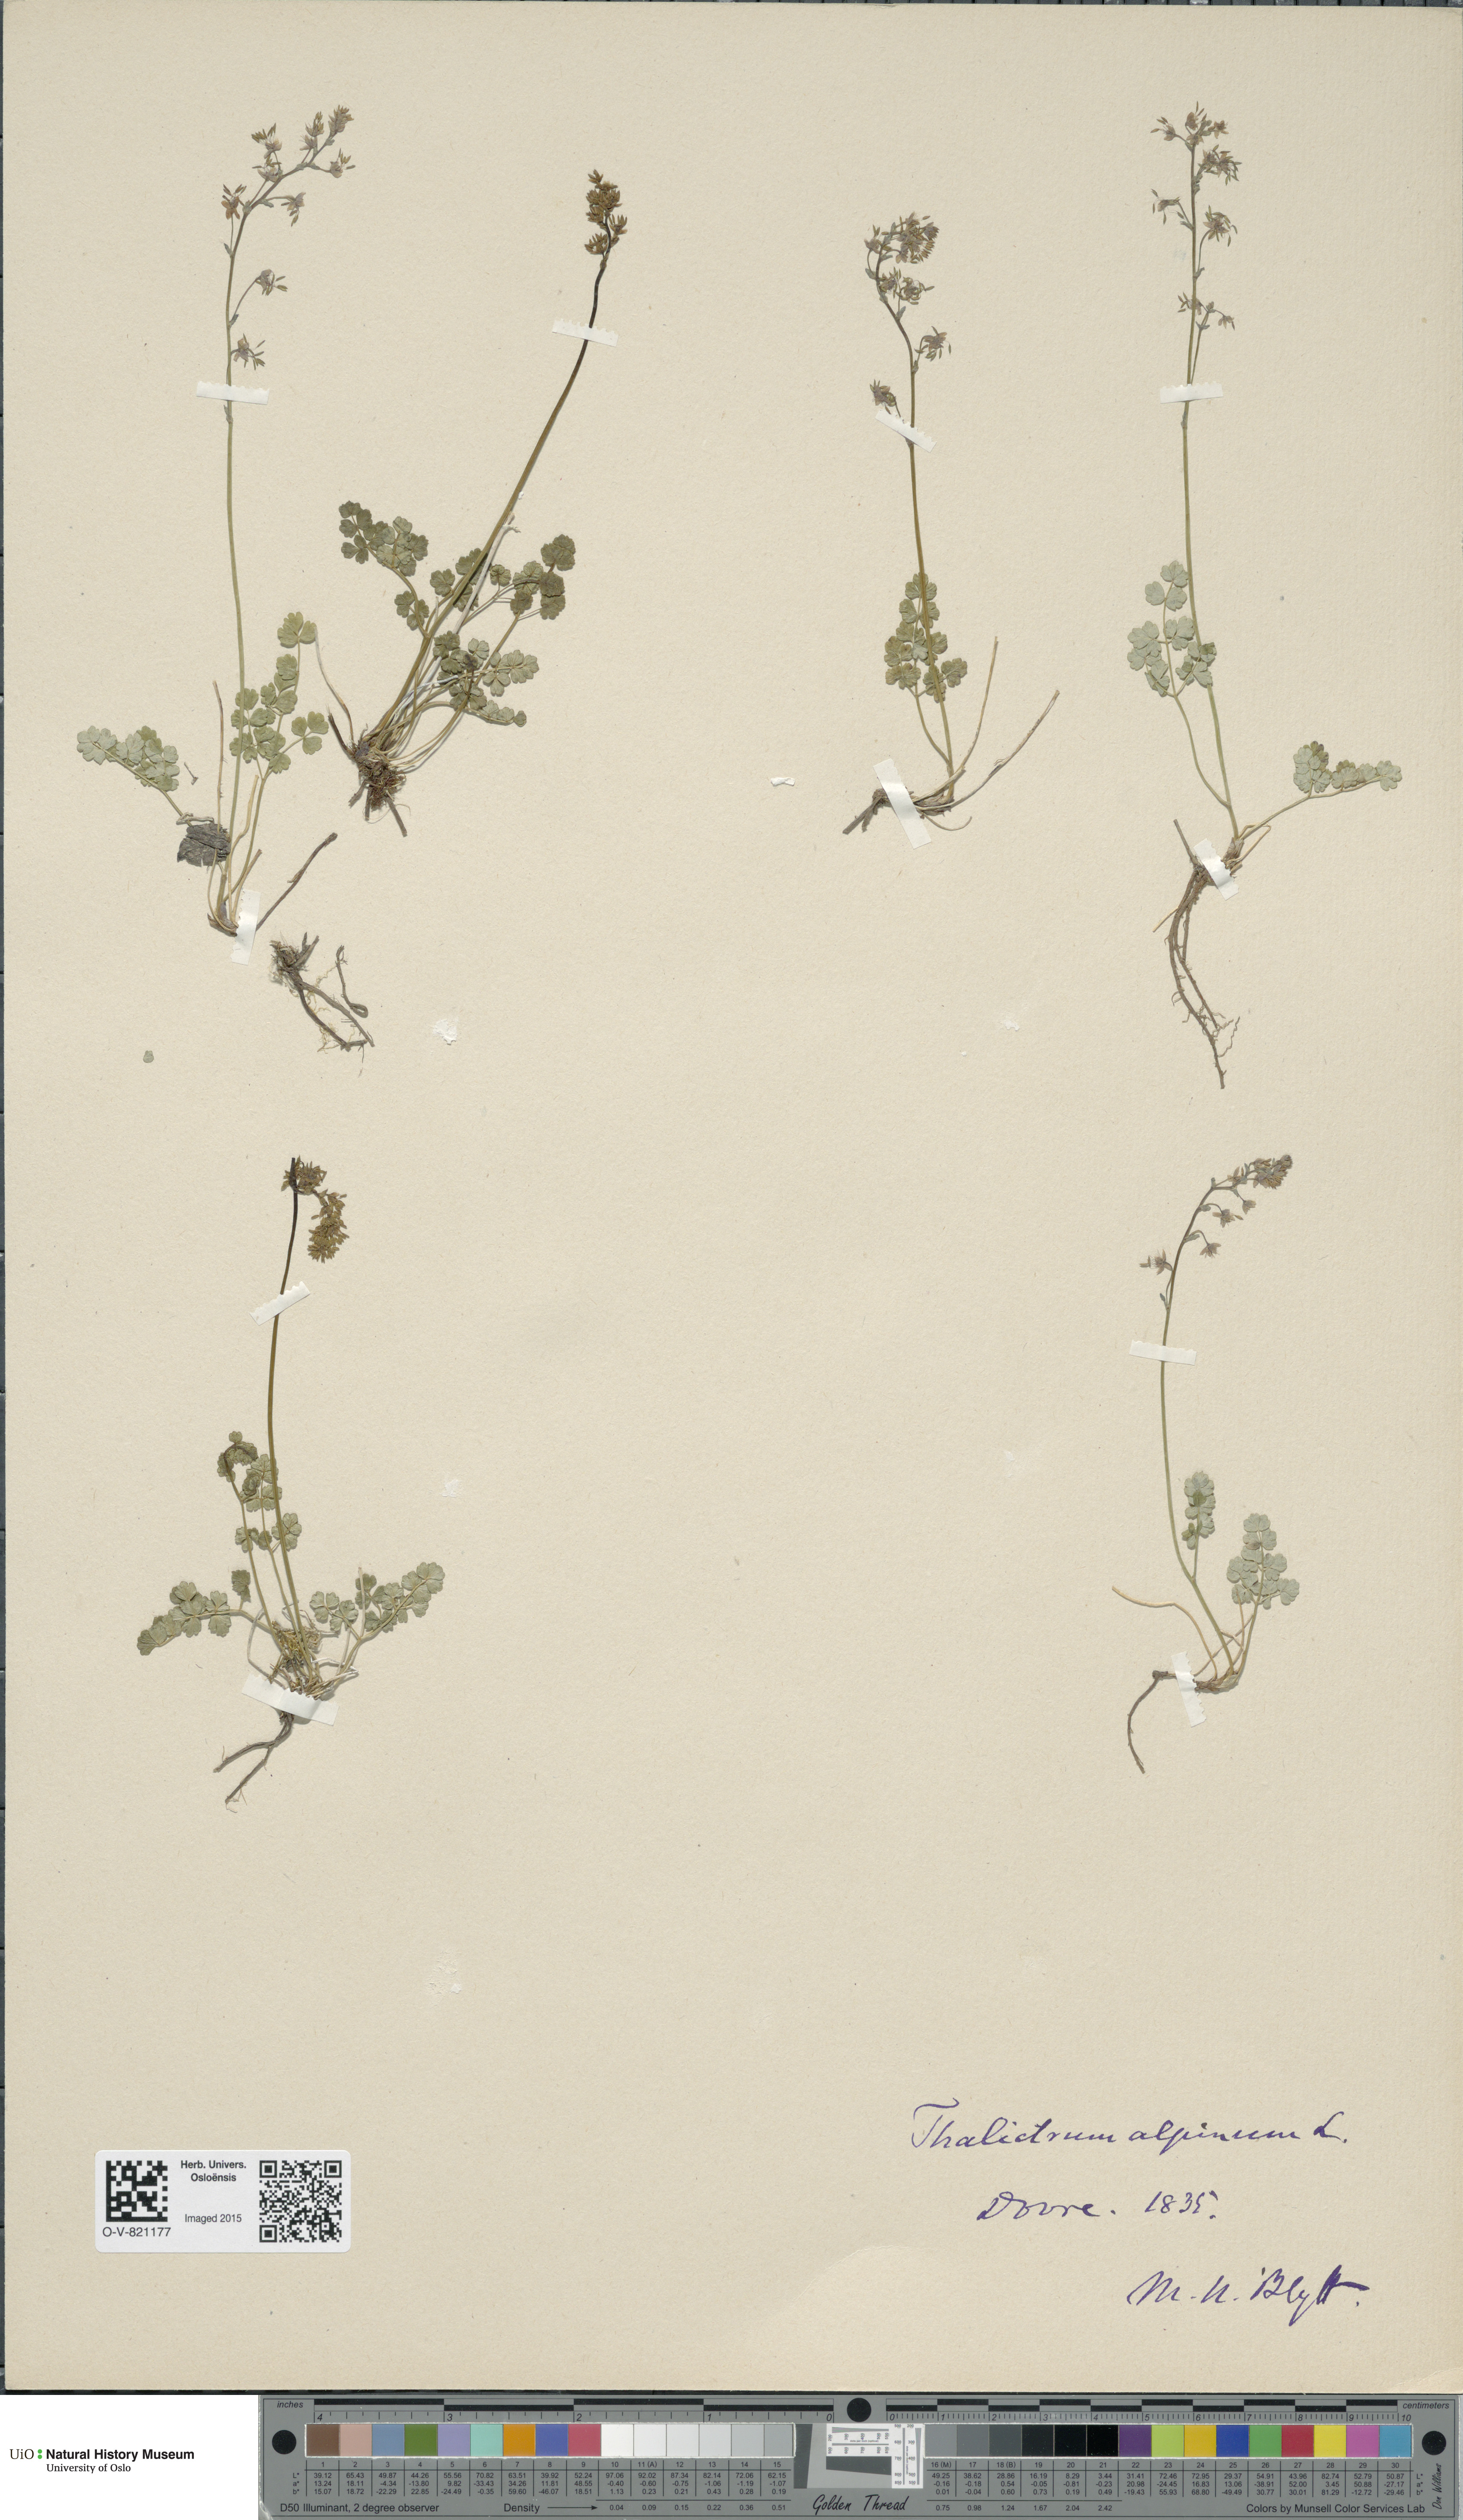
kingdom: Plantae
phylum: Tracheophyta
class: Magnoliopsida
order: Ranunculales
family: Ranunculaceae
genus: Thalictrum
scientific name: Thalictrum alpinum
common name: Alpine meadow-rue
